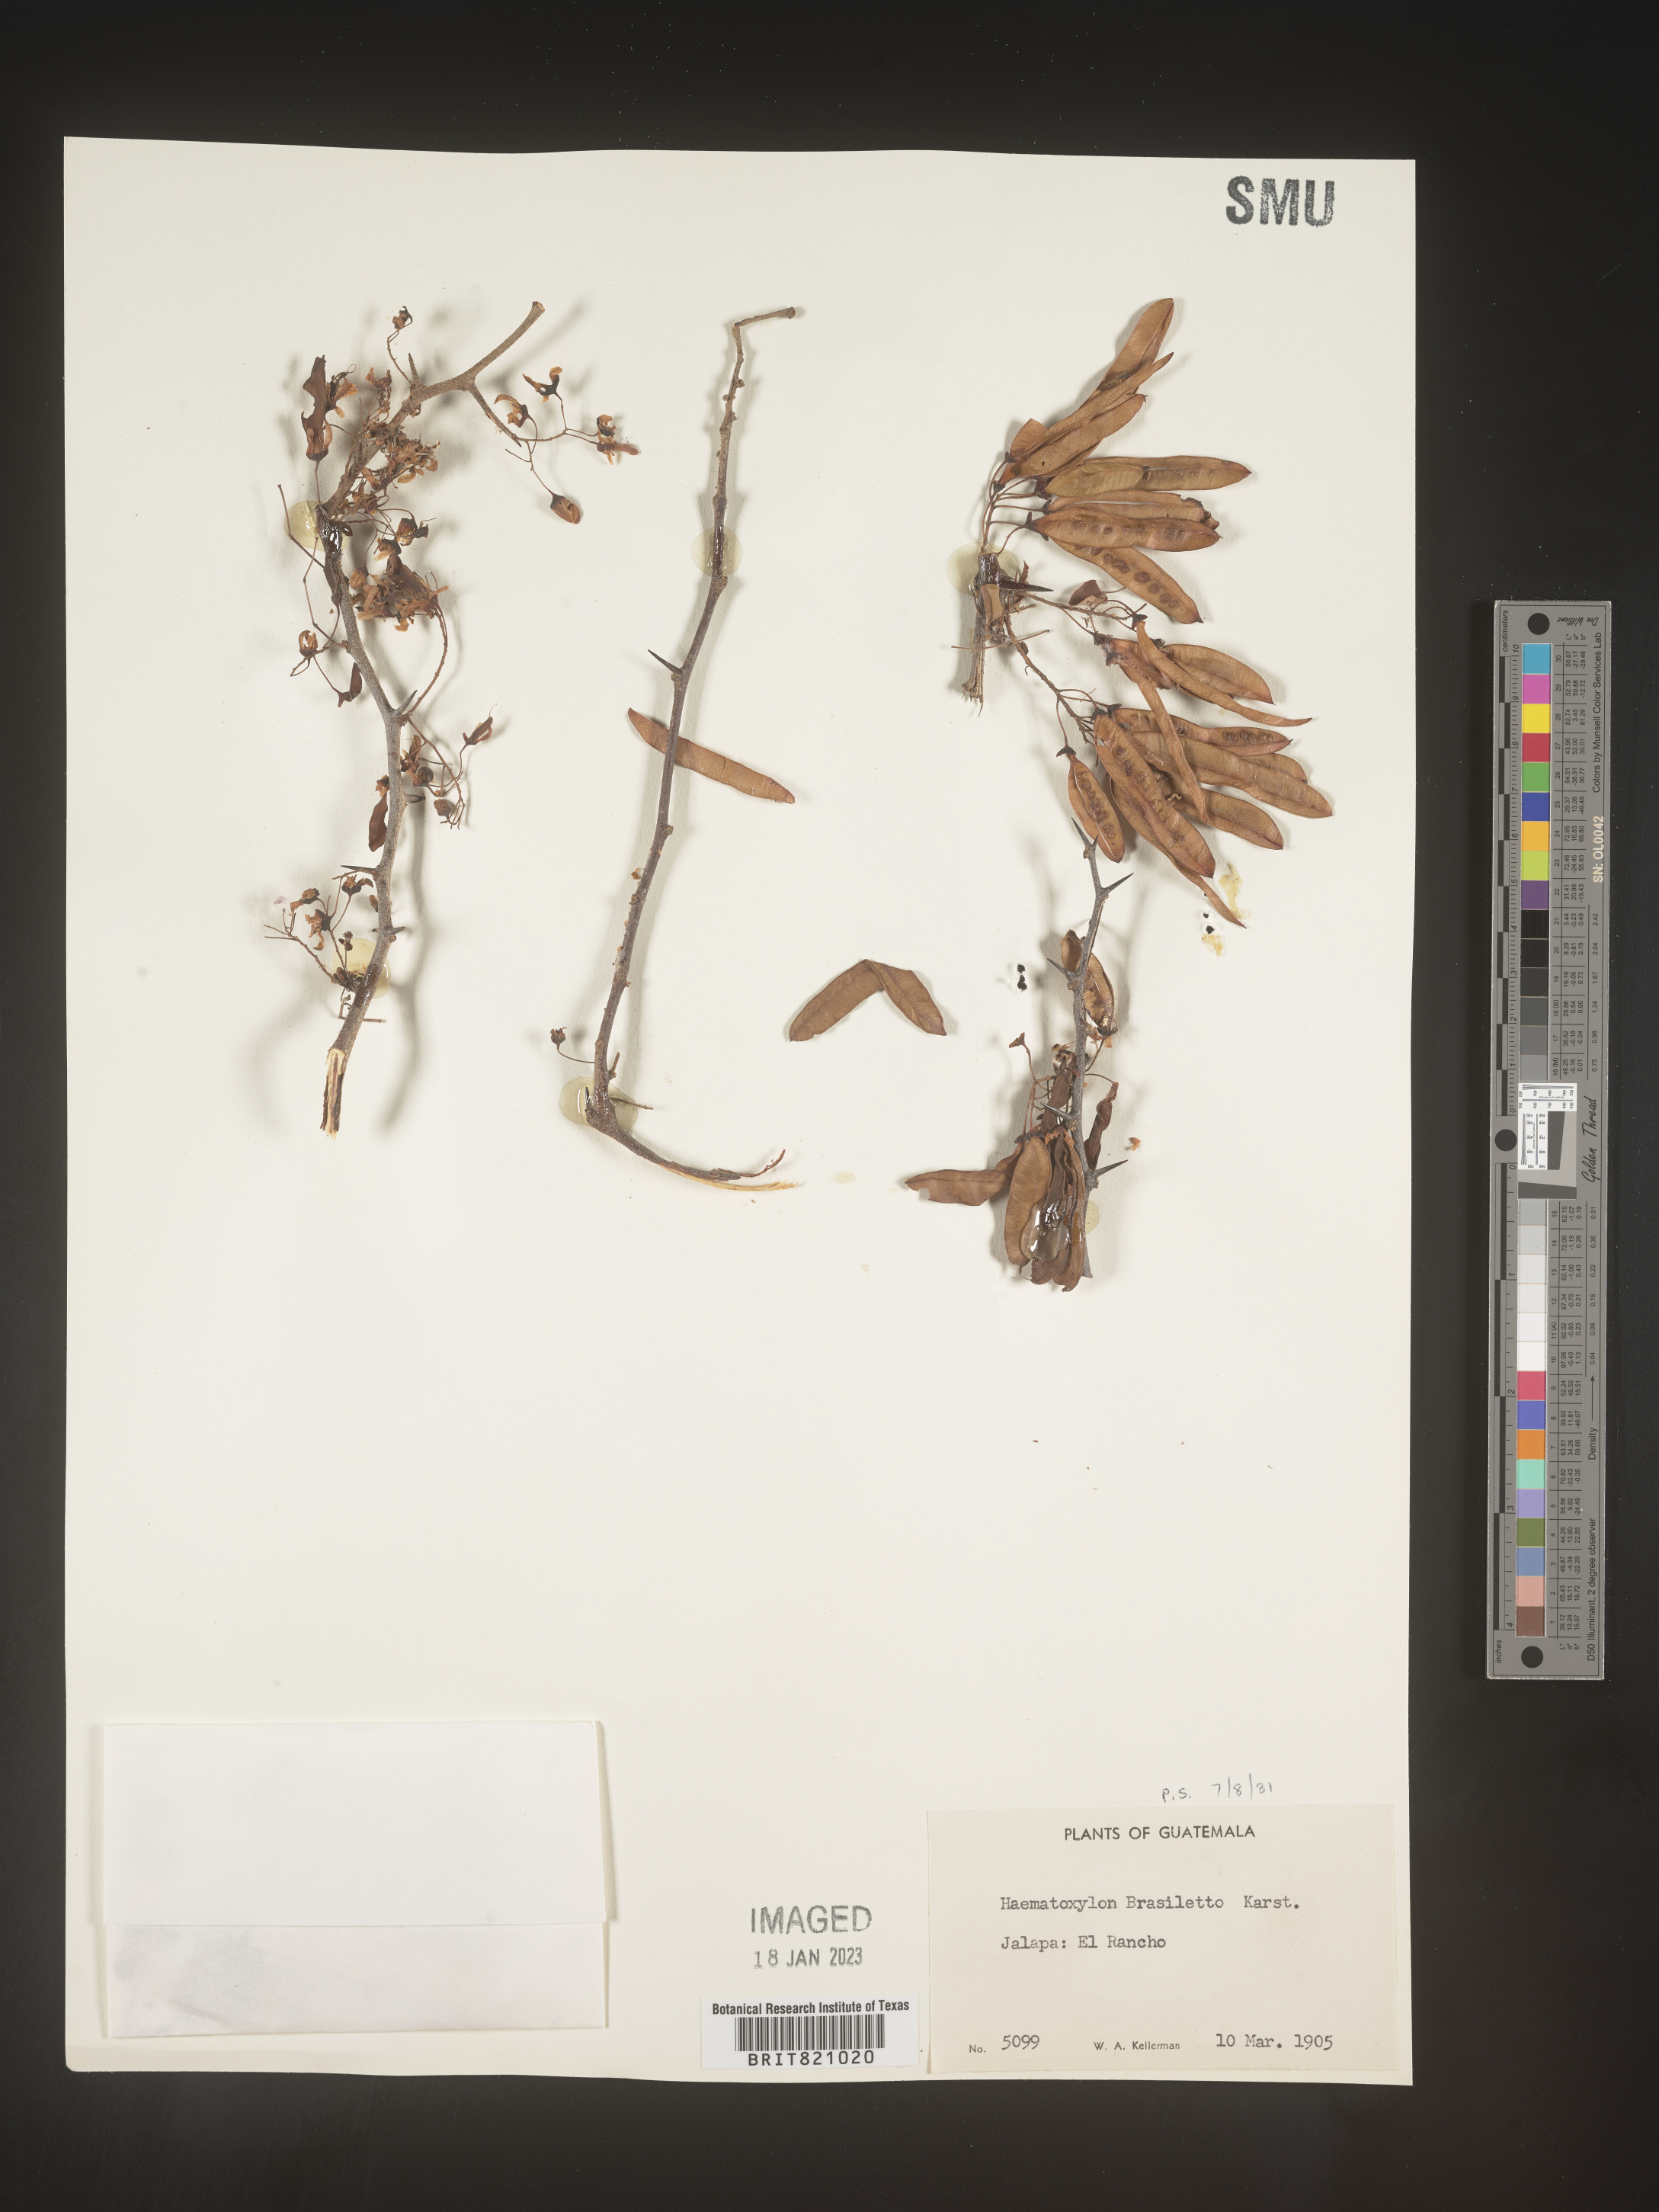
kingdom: Plantae
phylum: Tracheophyta
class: Magnoliopsida
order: Fabales
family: Fabaceae
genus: Haematoxylum
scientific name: Haematoxylum
